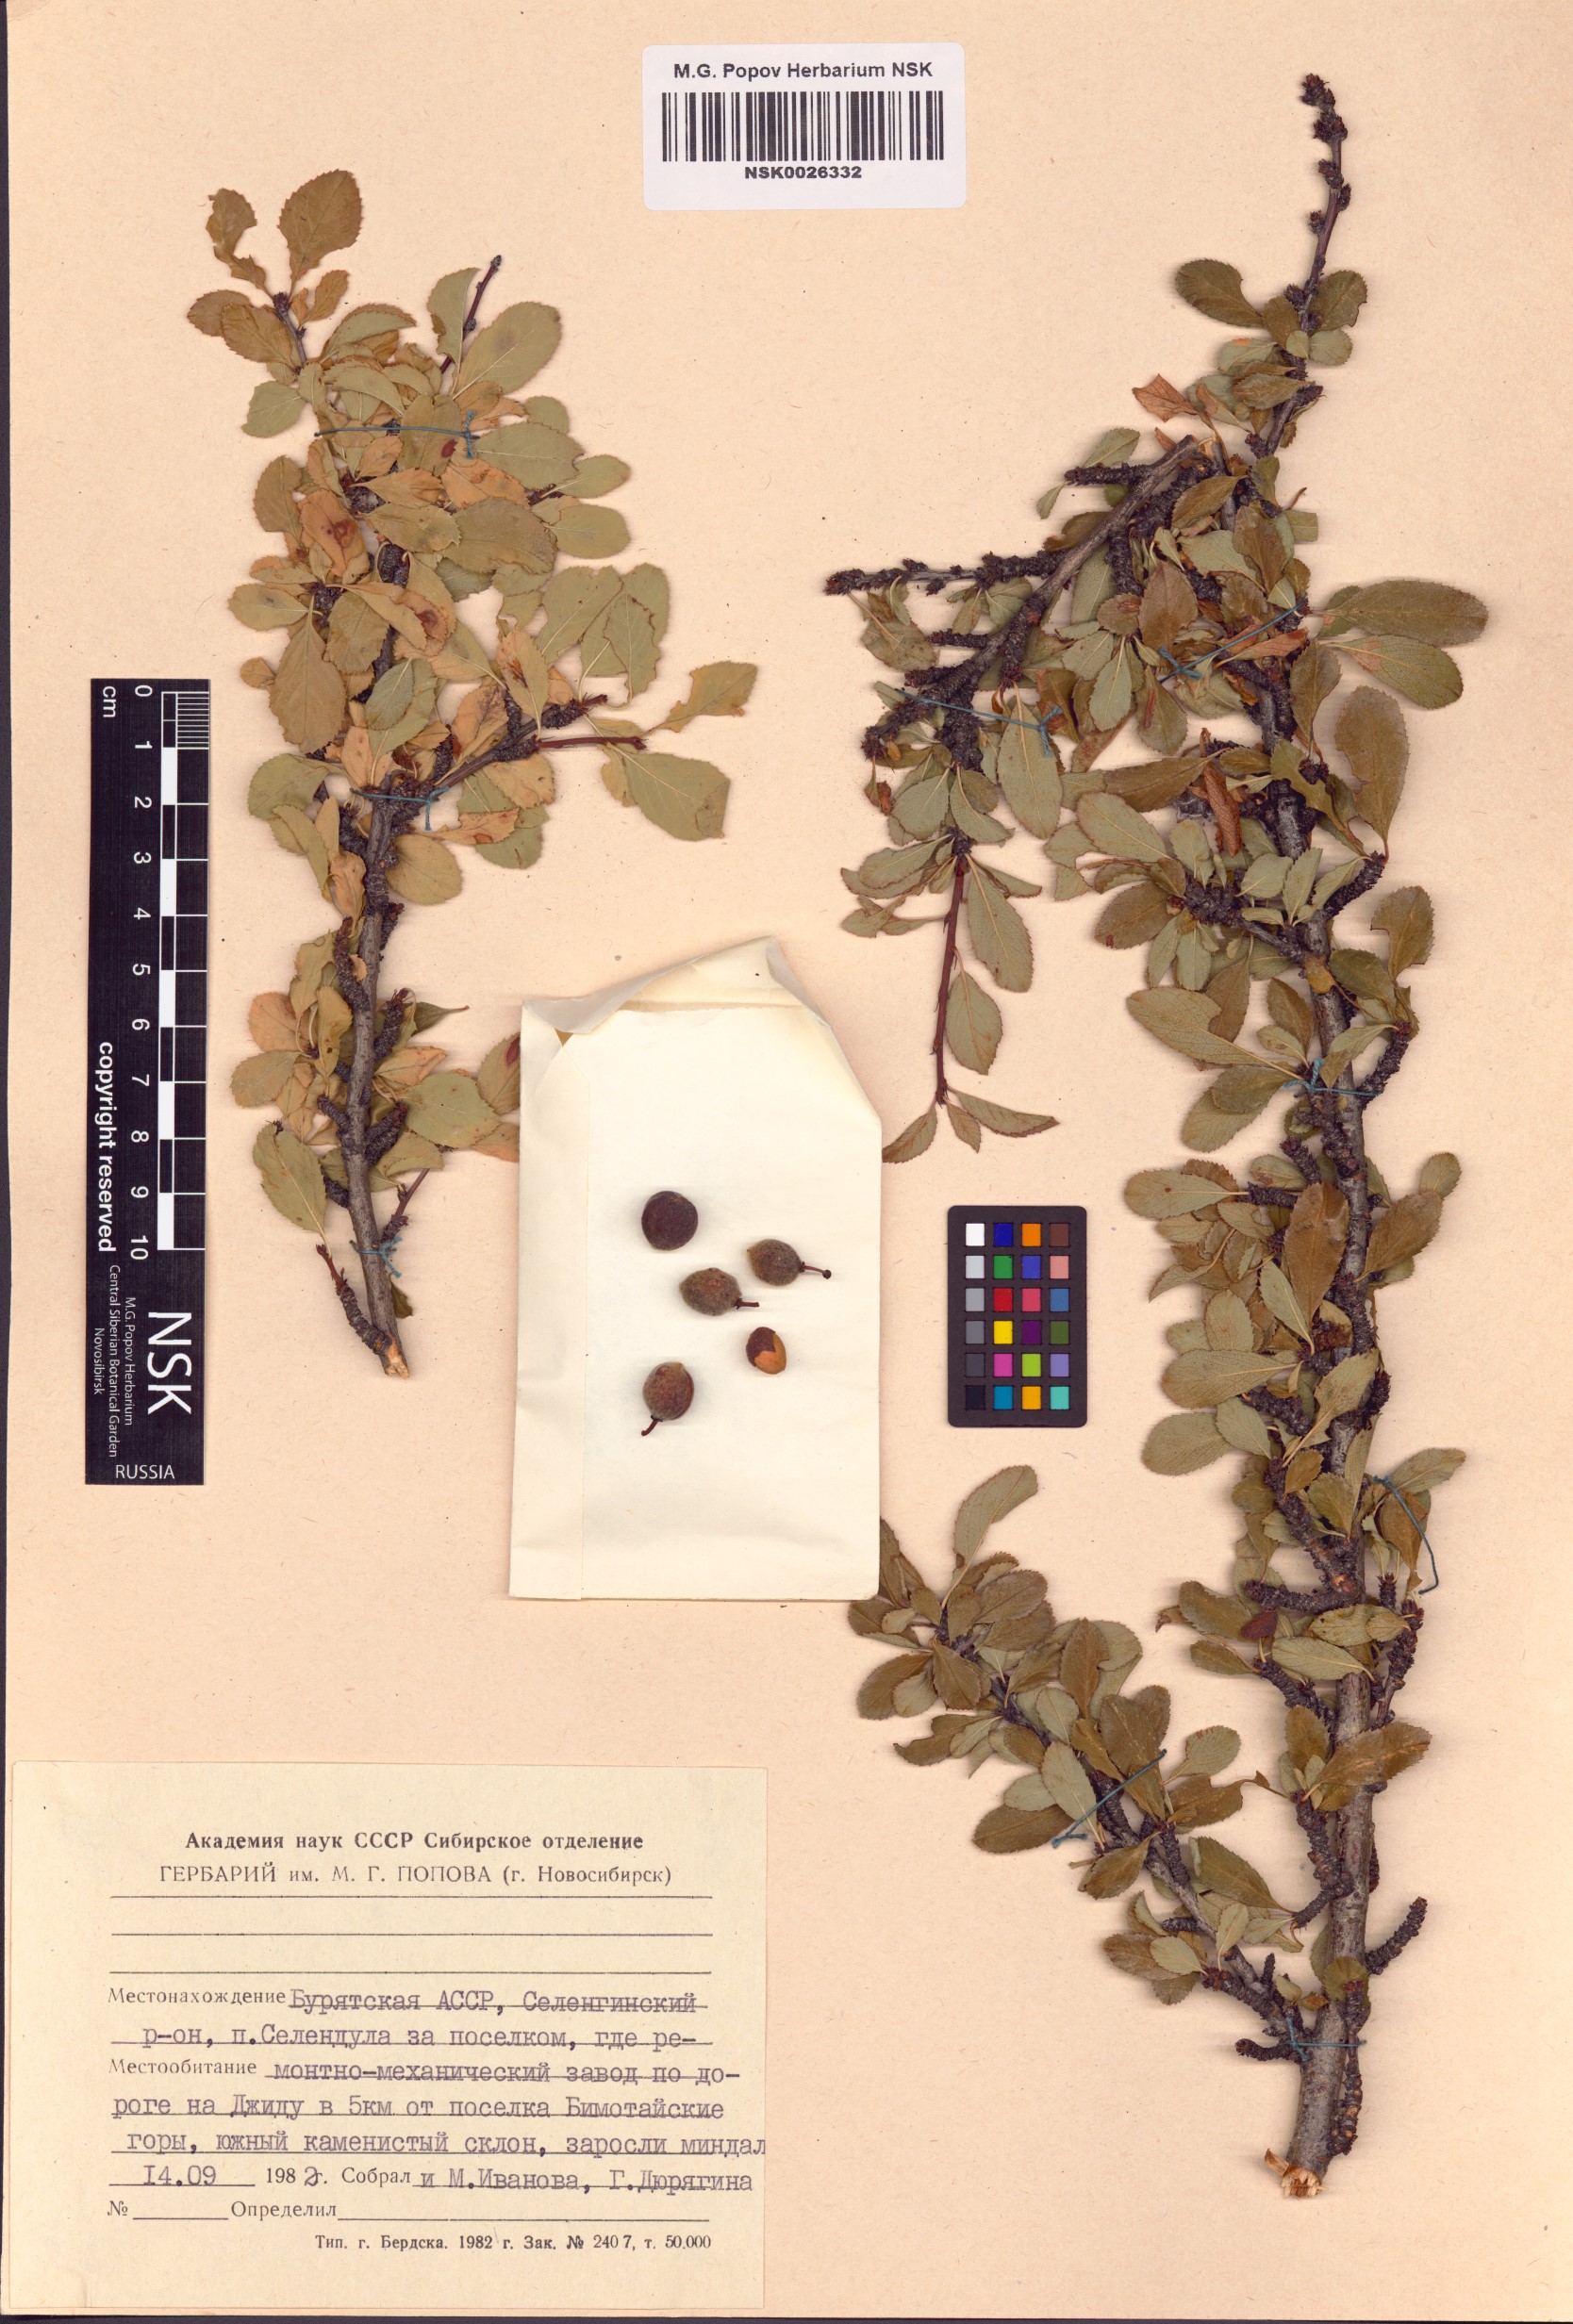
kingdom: Plantae
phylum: Tracheophyta
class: Magnoliopsida
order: Rosales
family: Rosaceae
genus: Prunus
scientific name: Prunus pedunculata
